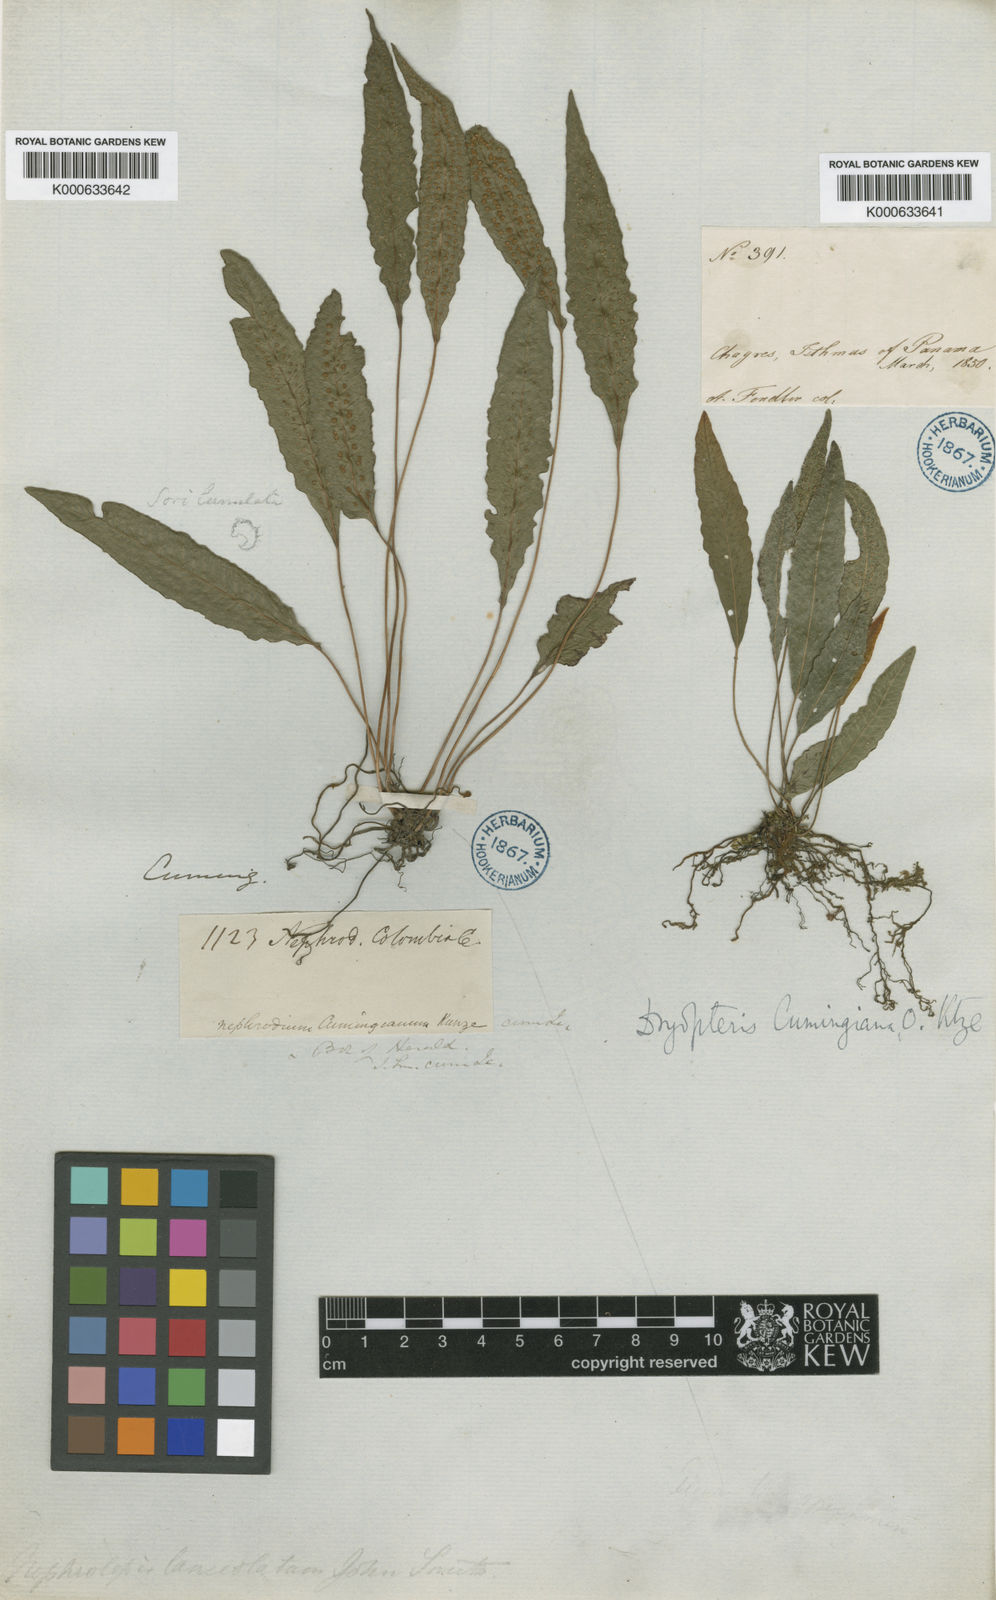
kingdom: Plantae
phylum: Tracheophyta
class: Polypodiopsida
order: Polypodiales
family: Thelypteridaceae
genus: Goniopteris
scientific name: Goniopteris cumingiana
